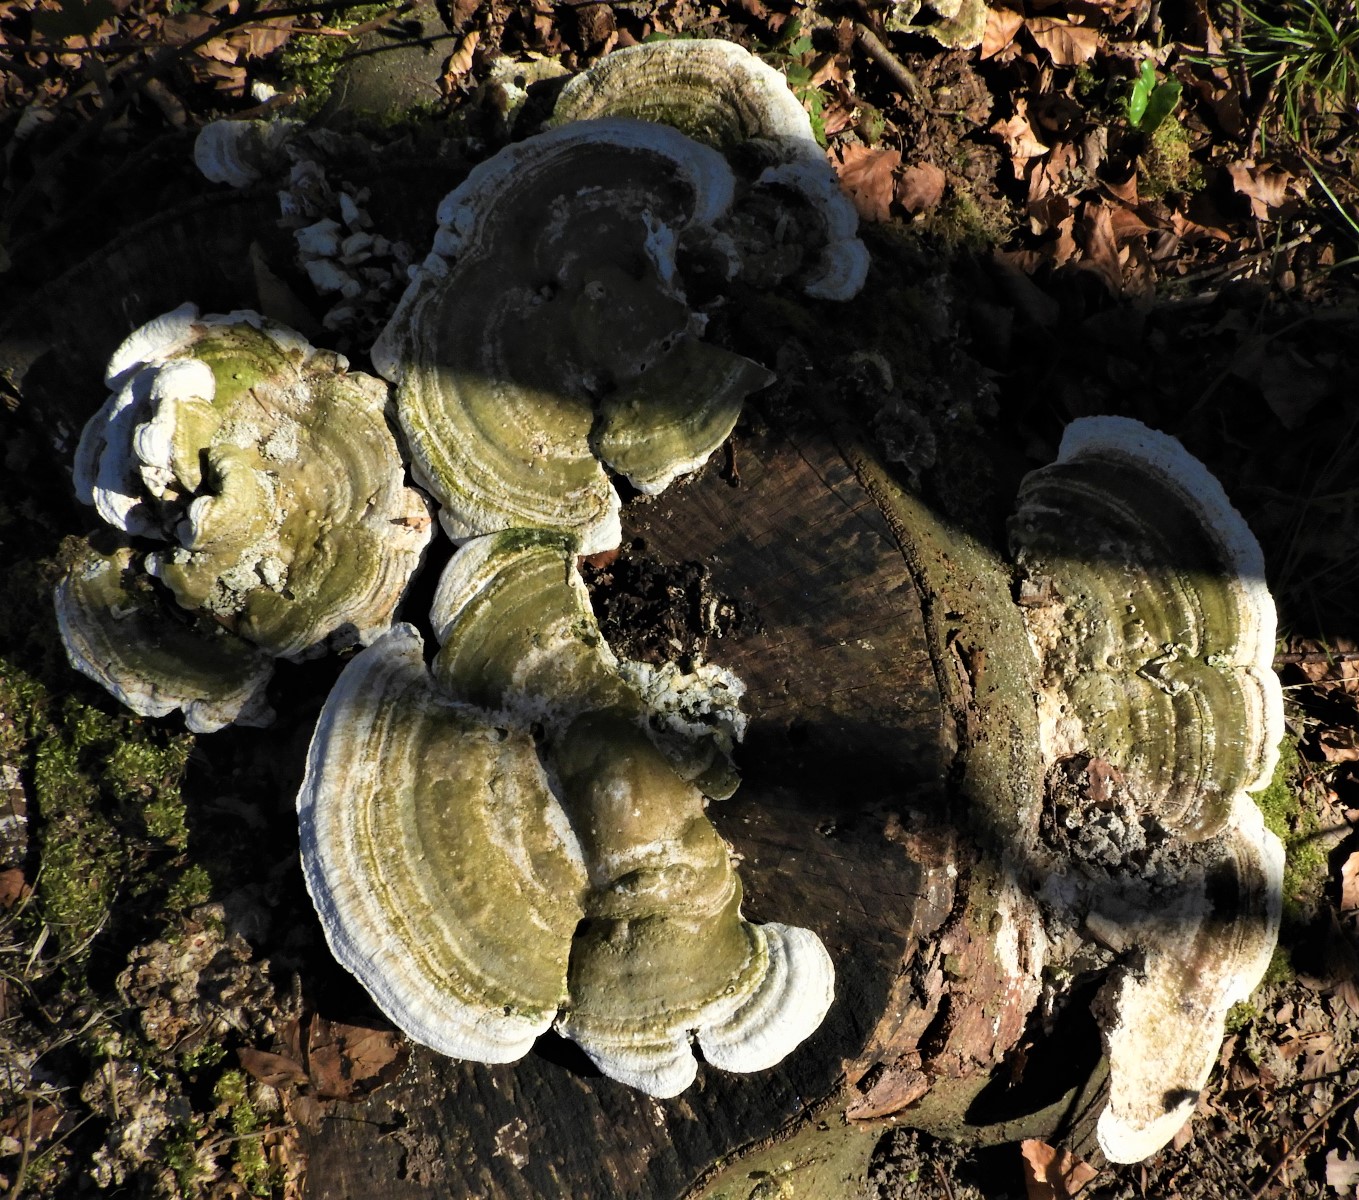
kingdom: Fungi
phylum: Basidiomycota
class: Agaricomycetes
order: Polyporales
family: Polyporaceae
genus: Trametes
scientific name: Trametes gibbosa
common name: puklet læderporesvamp
